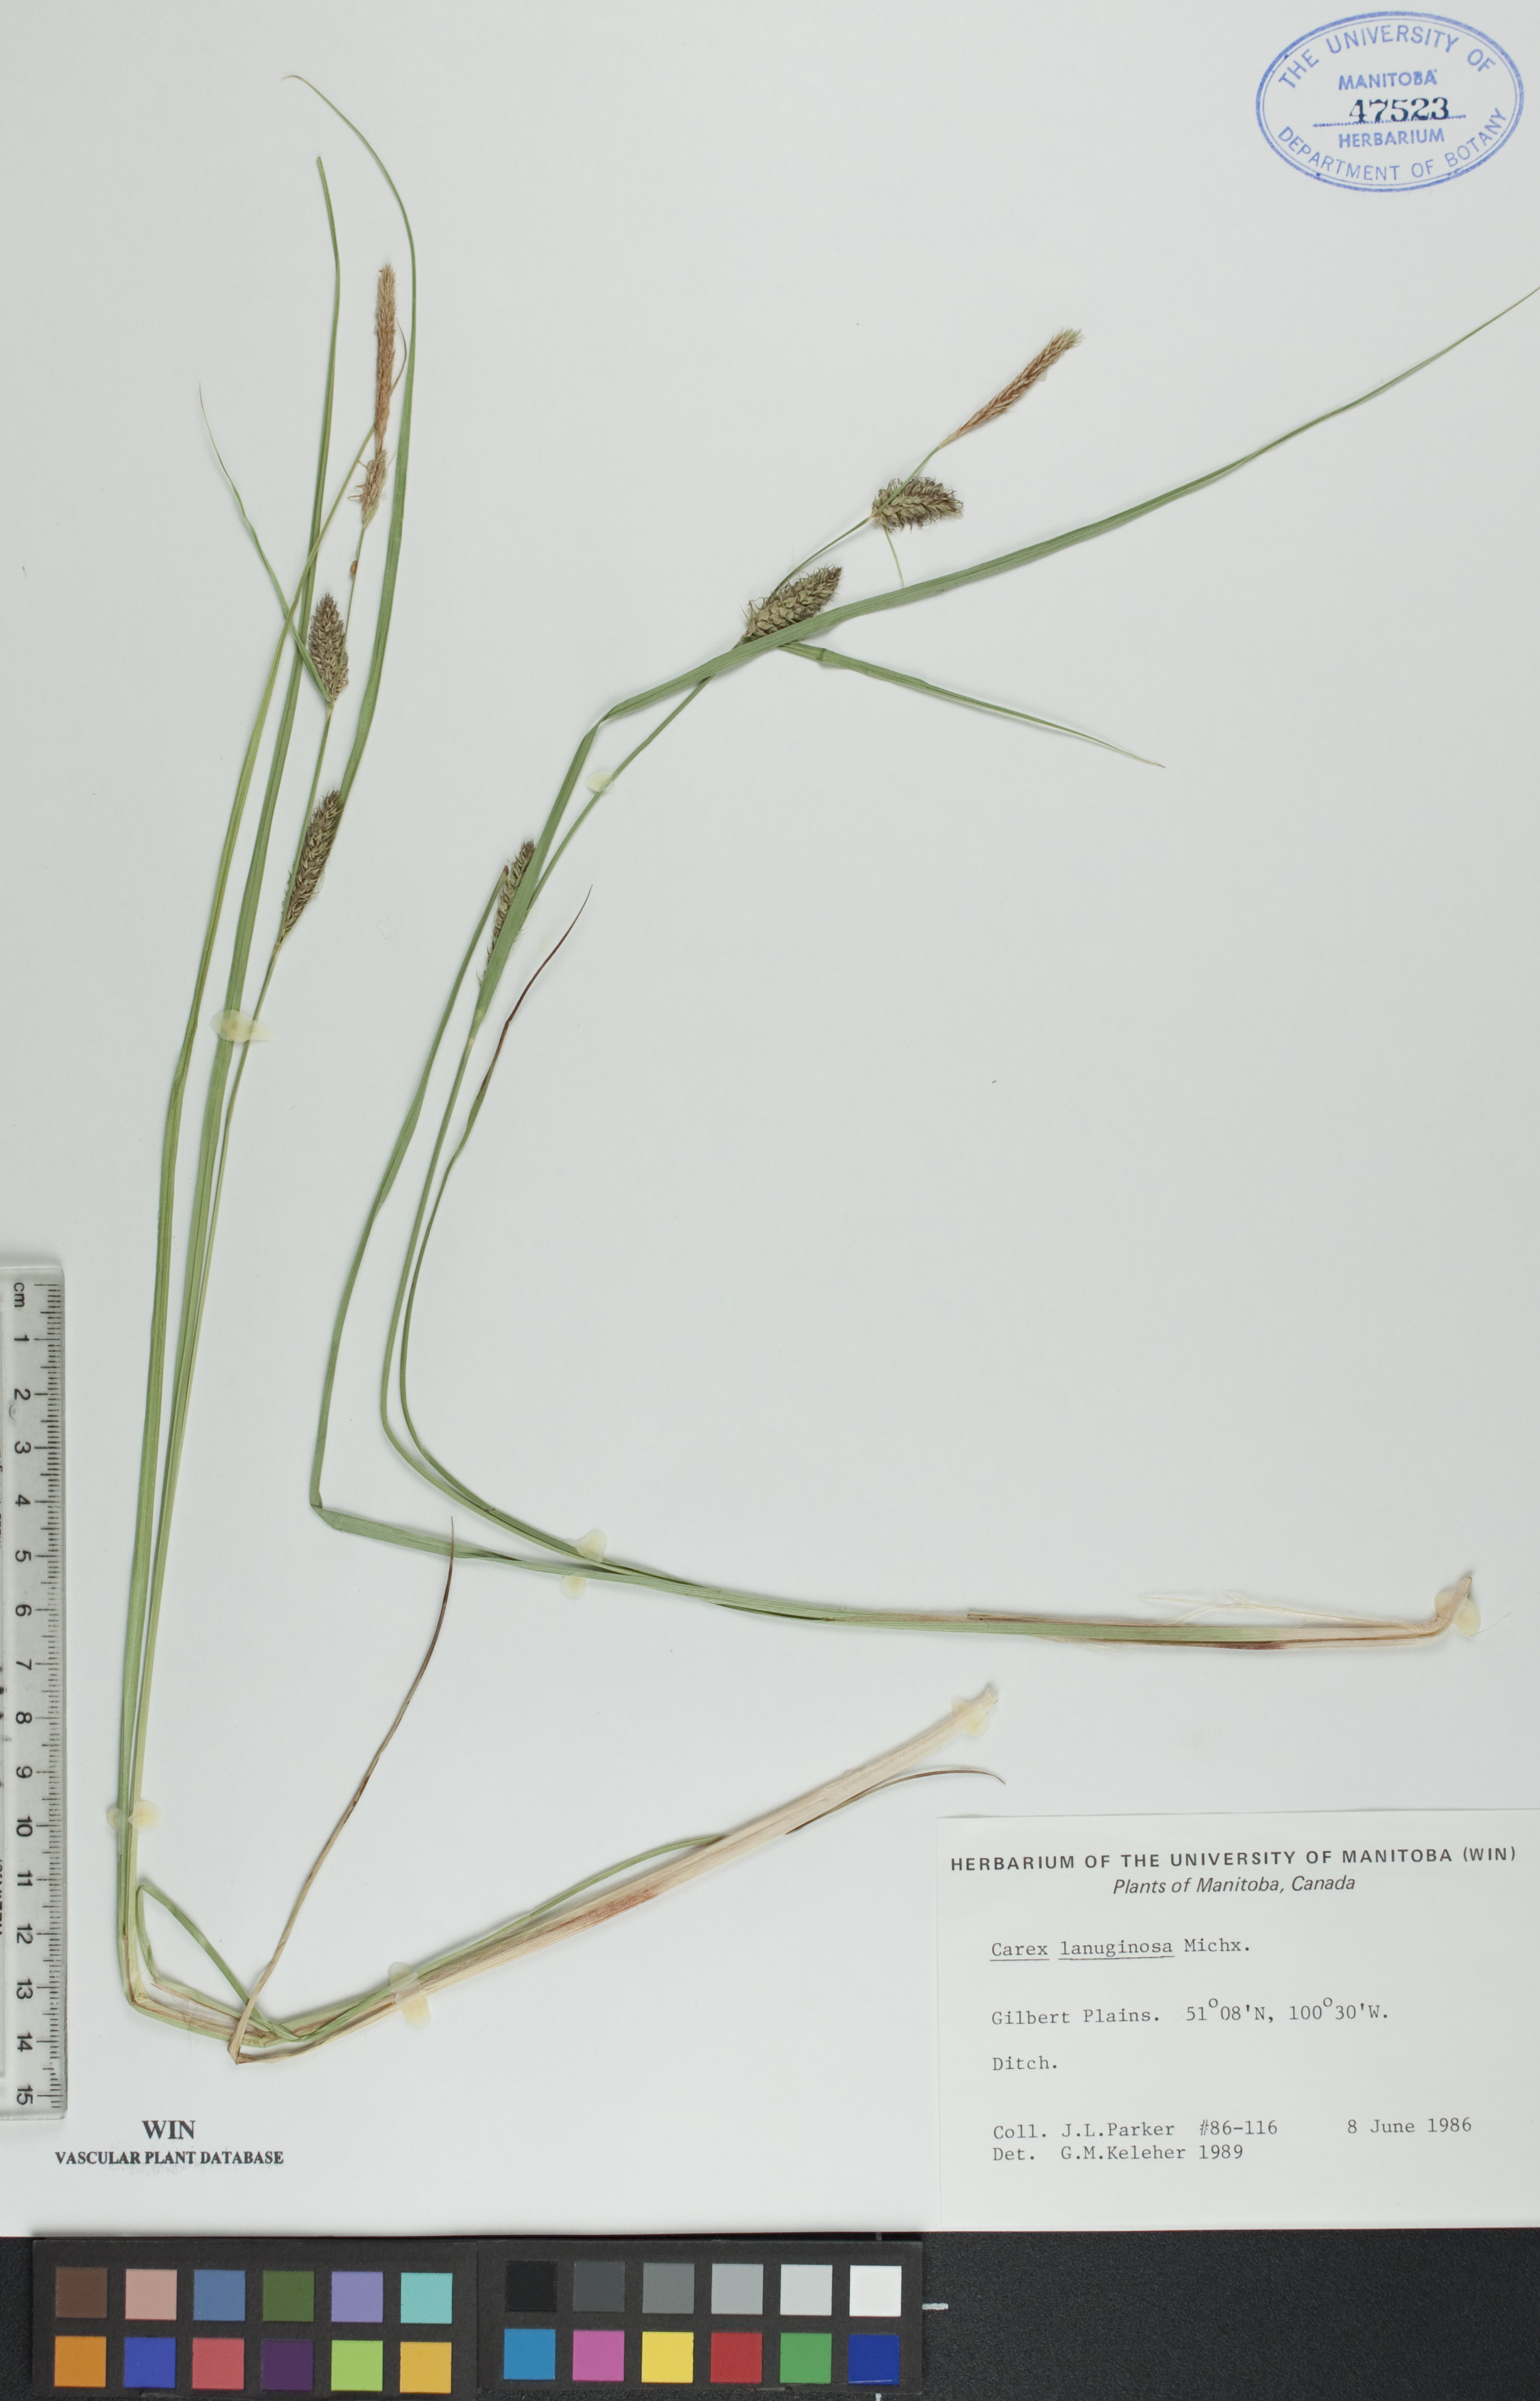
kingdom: Plantae
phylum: Tracheophyta
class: Liliopsida
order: Poales
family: Cyperaceae
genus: Carex
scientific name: Carex lasiocarpa
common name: Slender sedge
